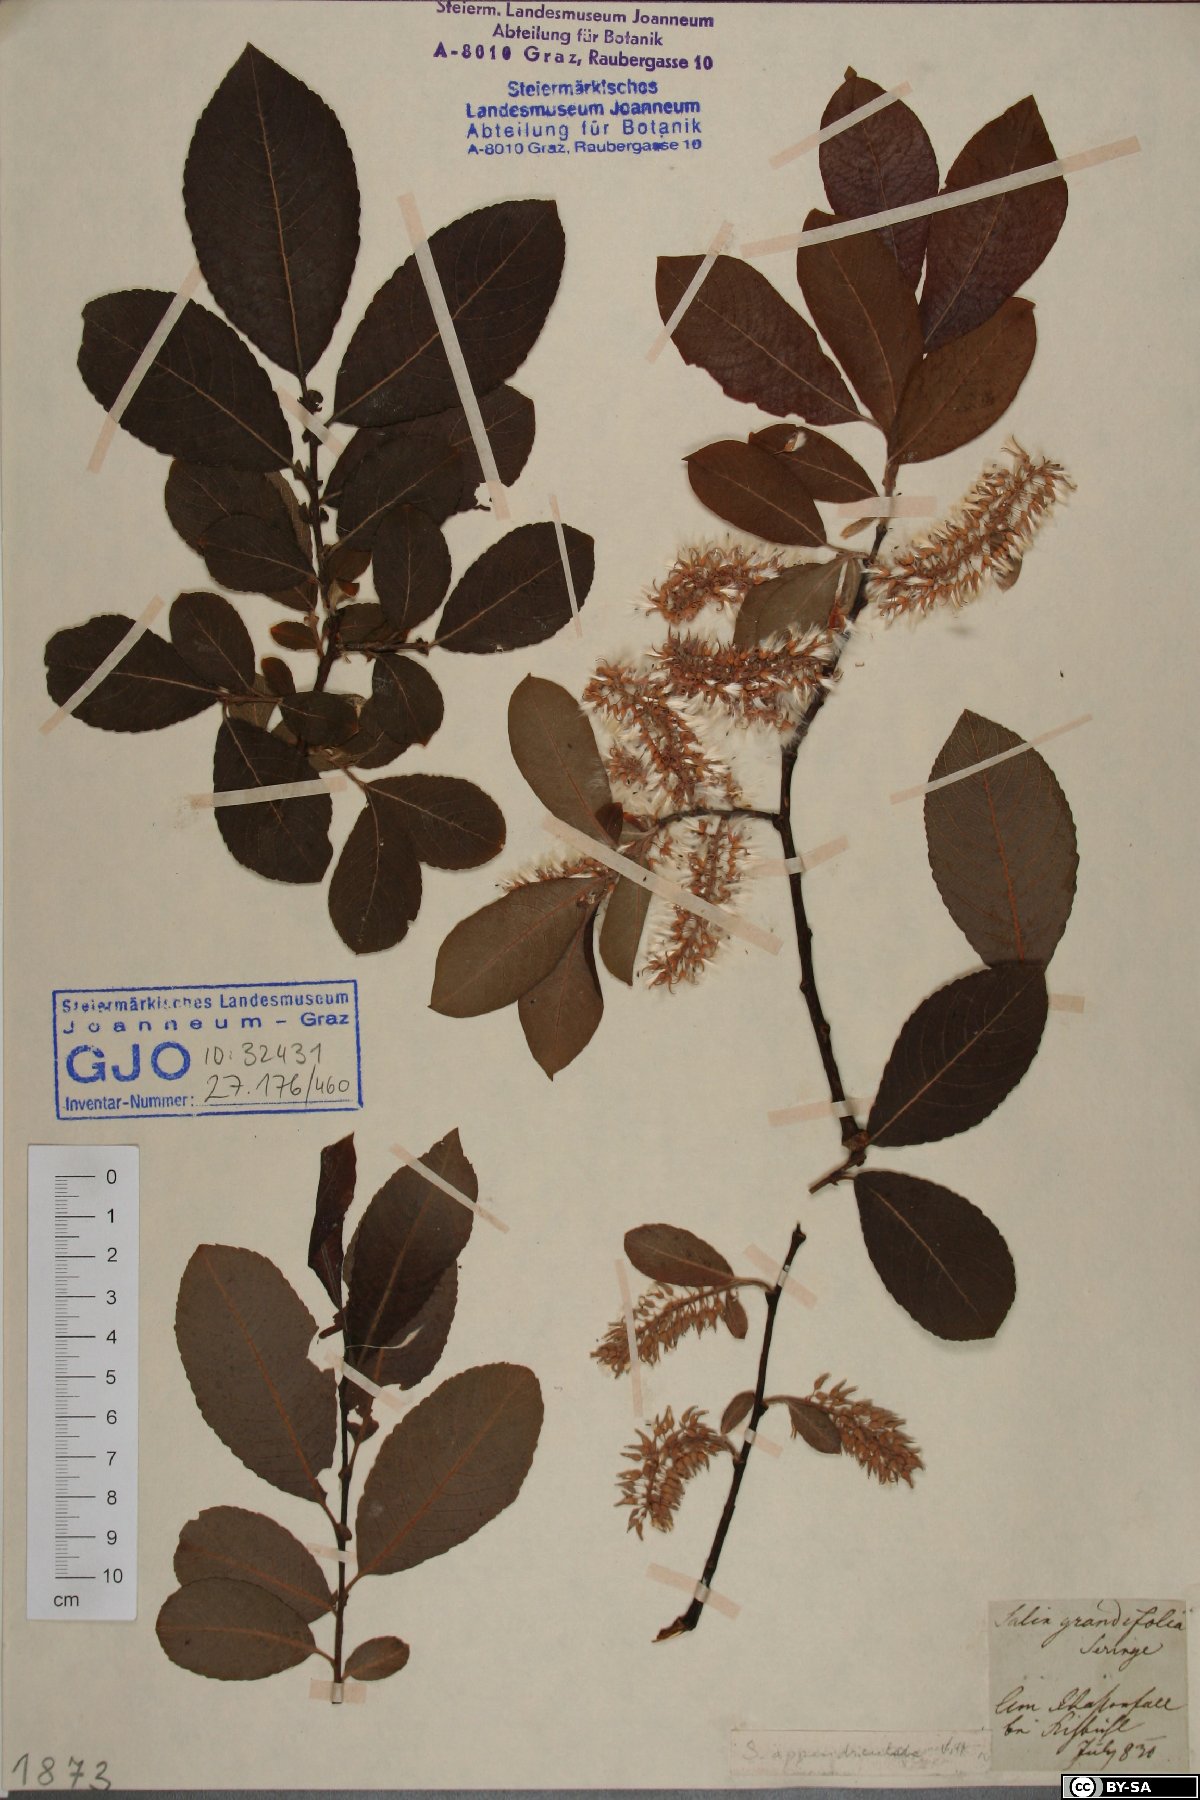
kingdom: Plantae
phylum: Tracheophyta
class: Magnoliopsida
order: Malpighiales
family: Salicaceae
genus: Salix
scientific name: Salix appendiculata
